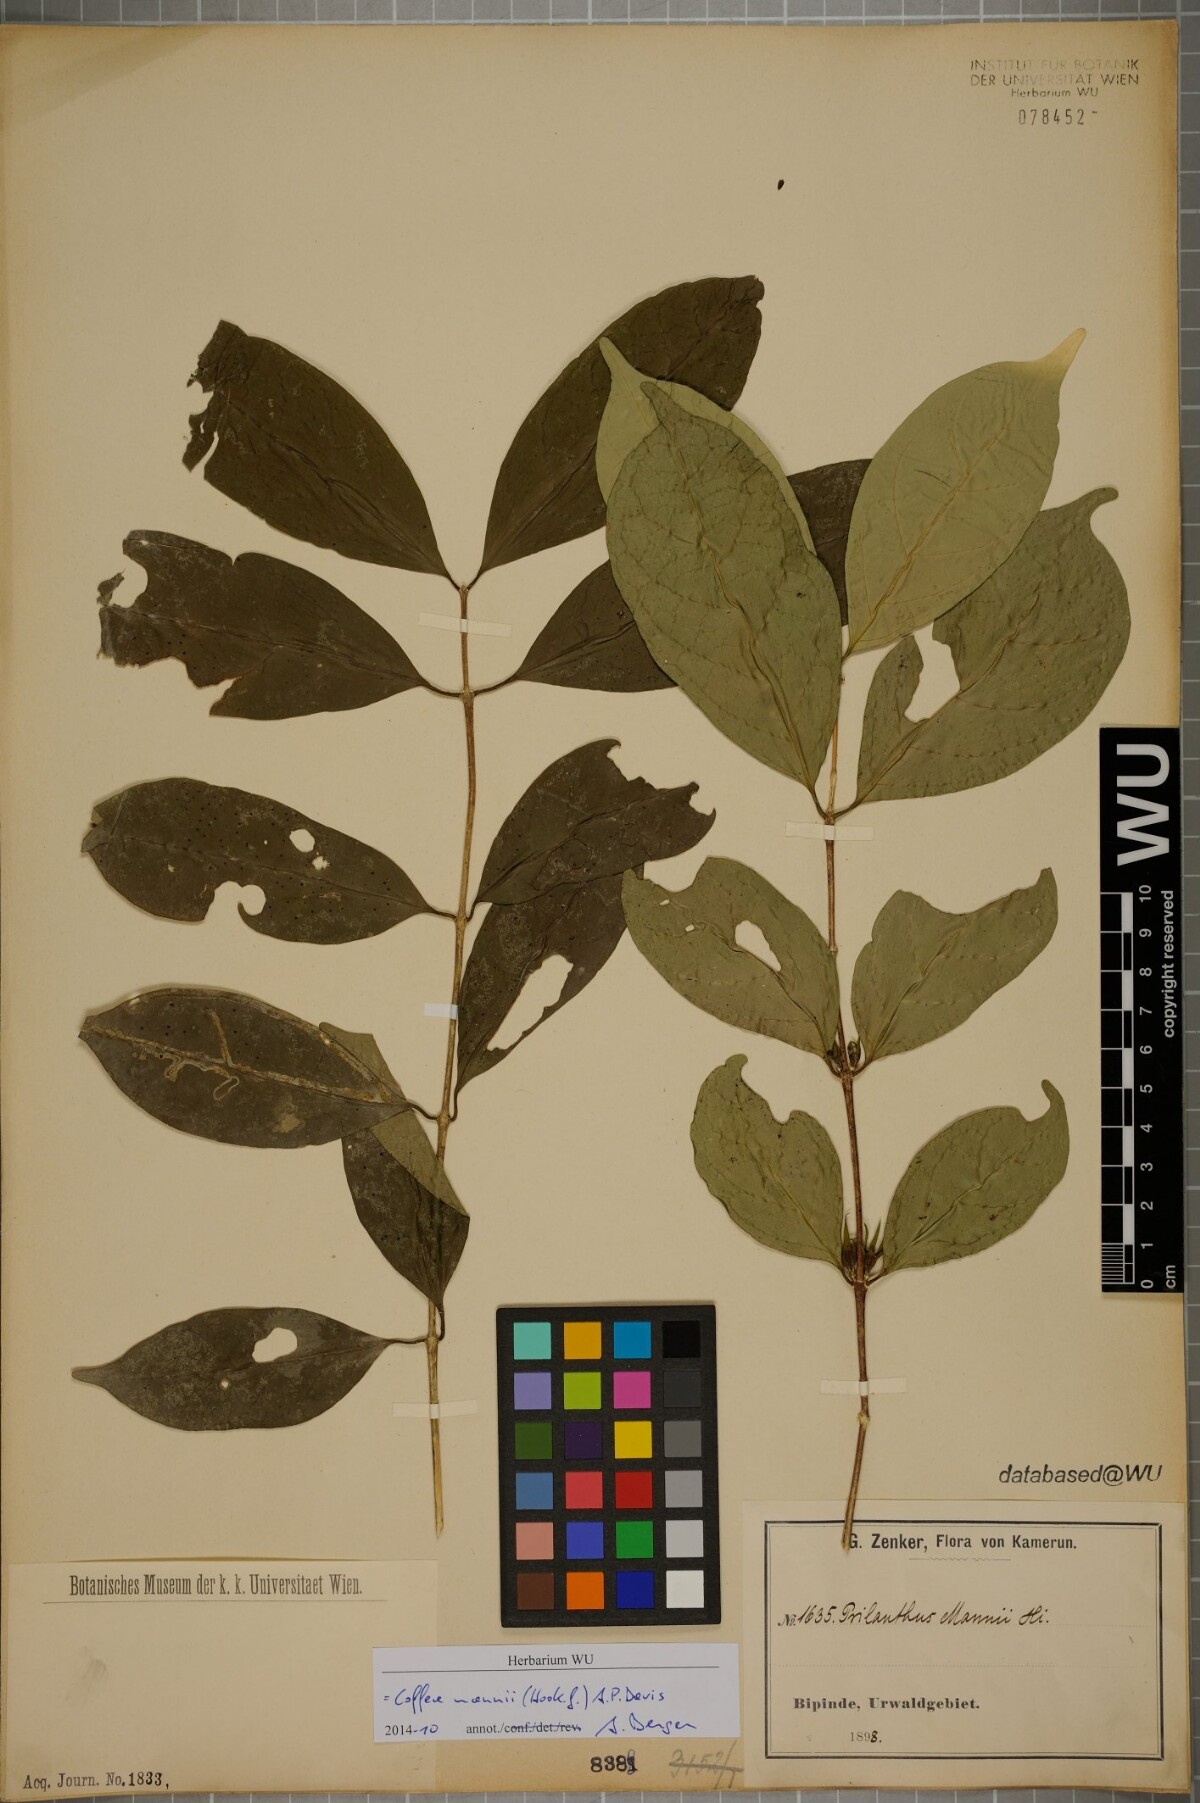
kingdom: Plantae
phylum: Tracheophyta
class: Magnoliopsida
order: Gentianales
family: Rubiaceae
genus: Coffea
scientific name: Coffea mannii
